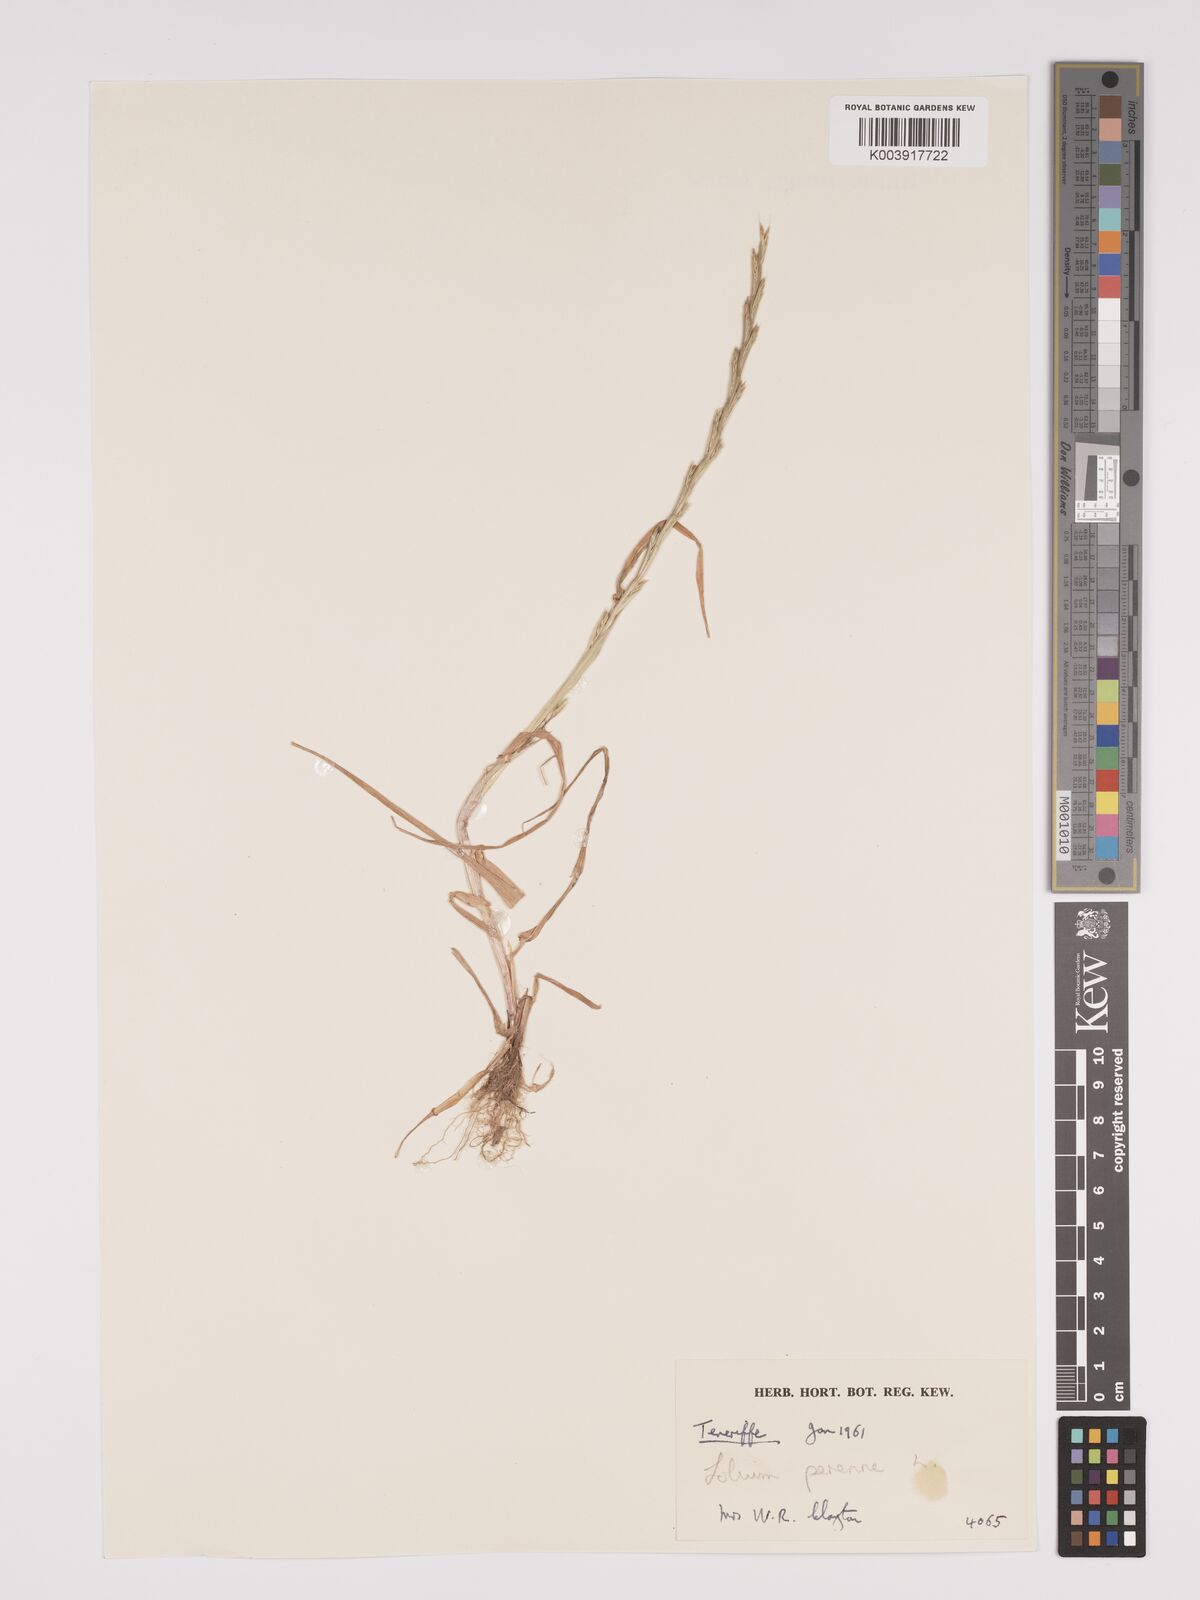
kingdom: Plantae
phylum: Tracheophyta
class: Liliopsida
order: Poales
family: Poaceae
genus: Lolium
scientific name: Lolium perenne
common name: Perennial ryegrass
